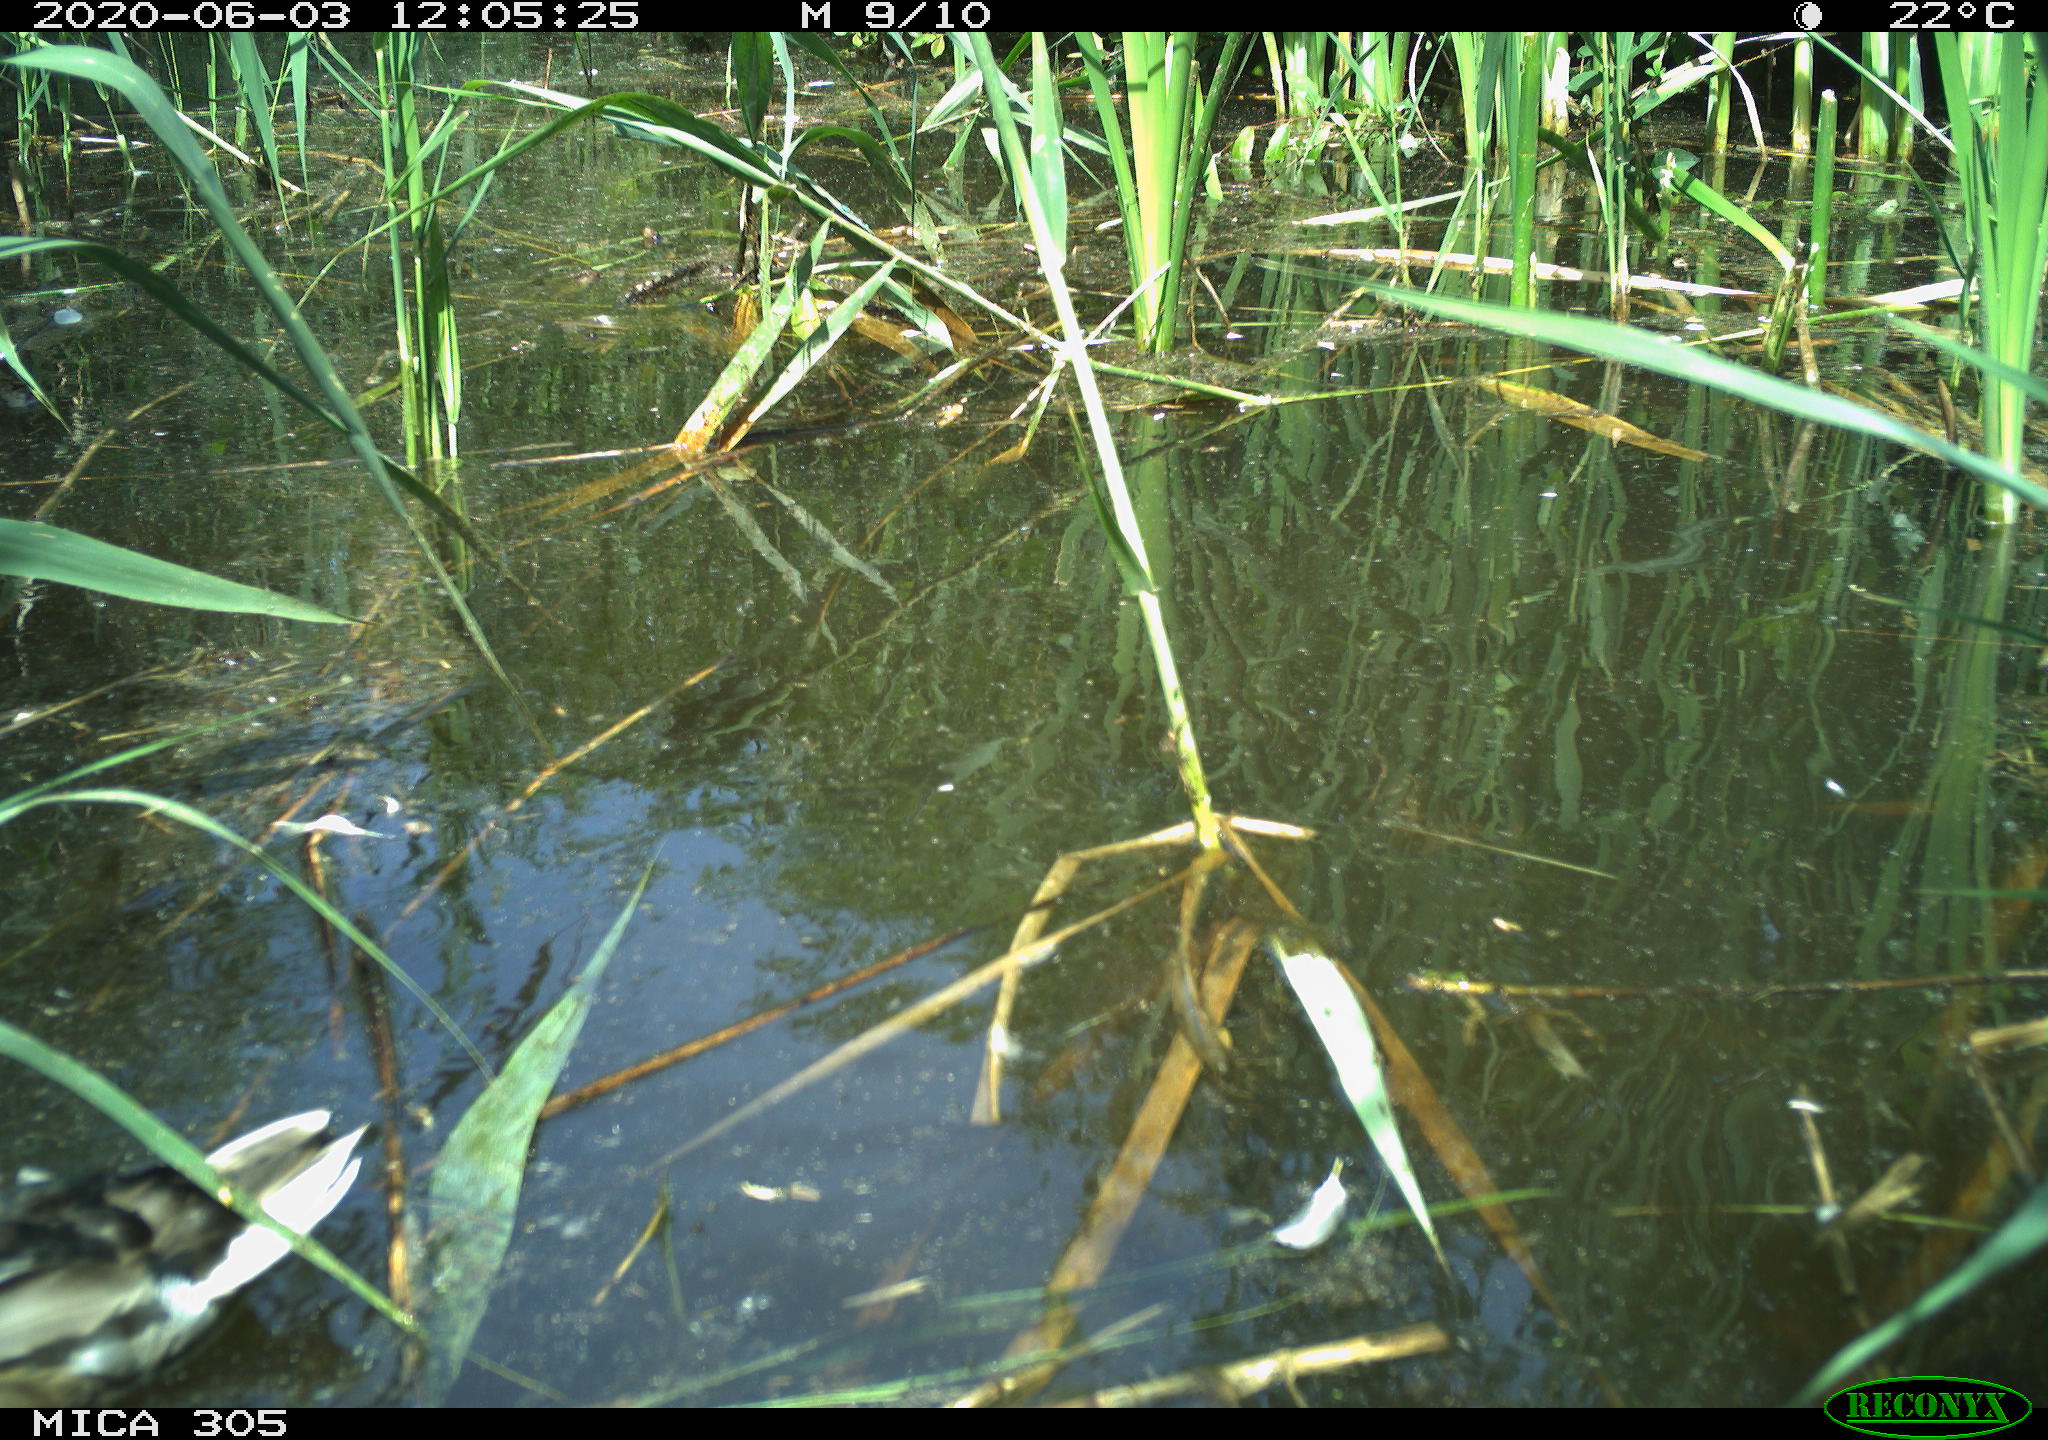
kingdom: Animalia
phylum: Chordata
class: Aves
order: Anseriformes
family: Anatidae
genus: Anas
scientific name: Anas platyrhynchos
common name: Mallard
